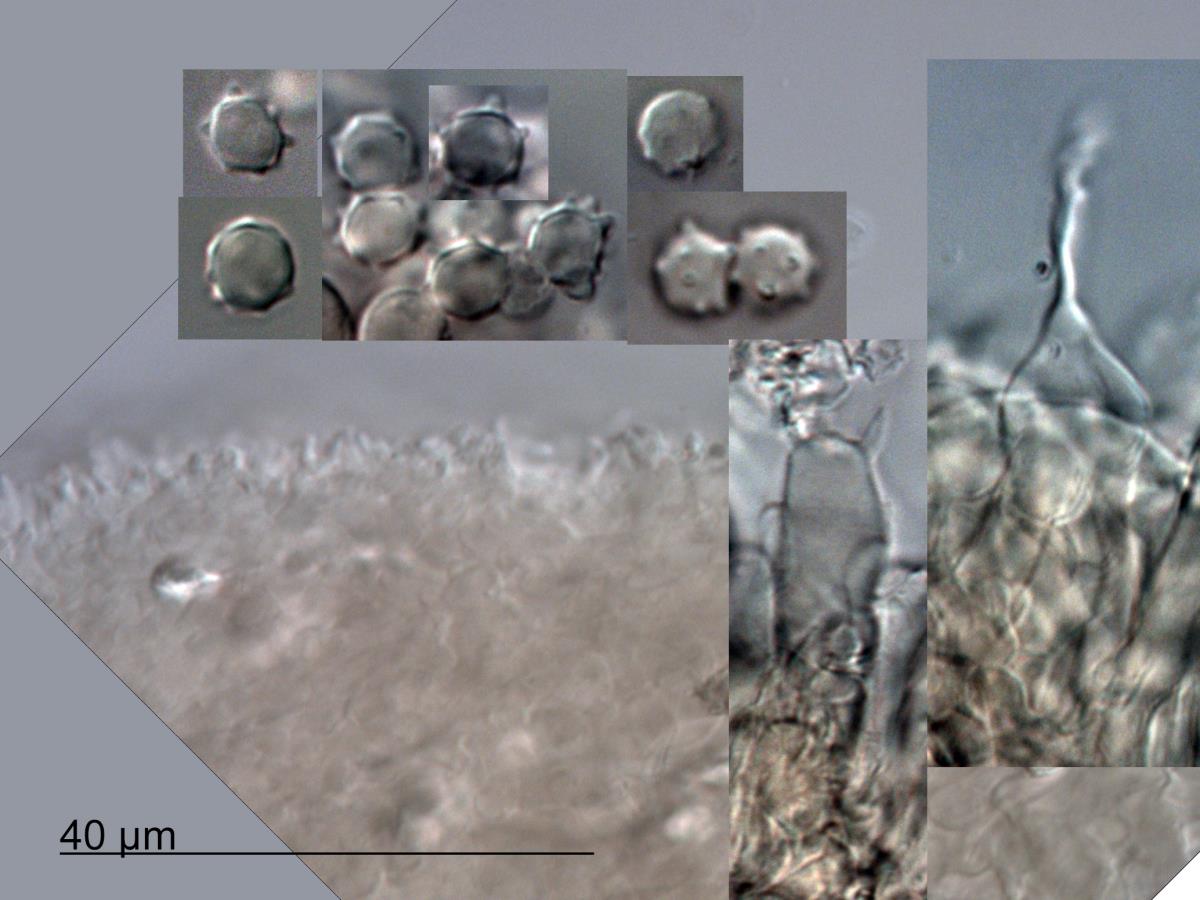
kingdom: Fungi
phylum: Basidiomycota
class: Agaricomycetes
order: Agaricales
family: Tricholomataceae
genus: Mycenella
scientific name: Mycenella margaritispora
